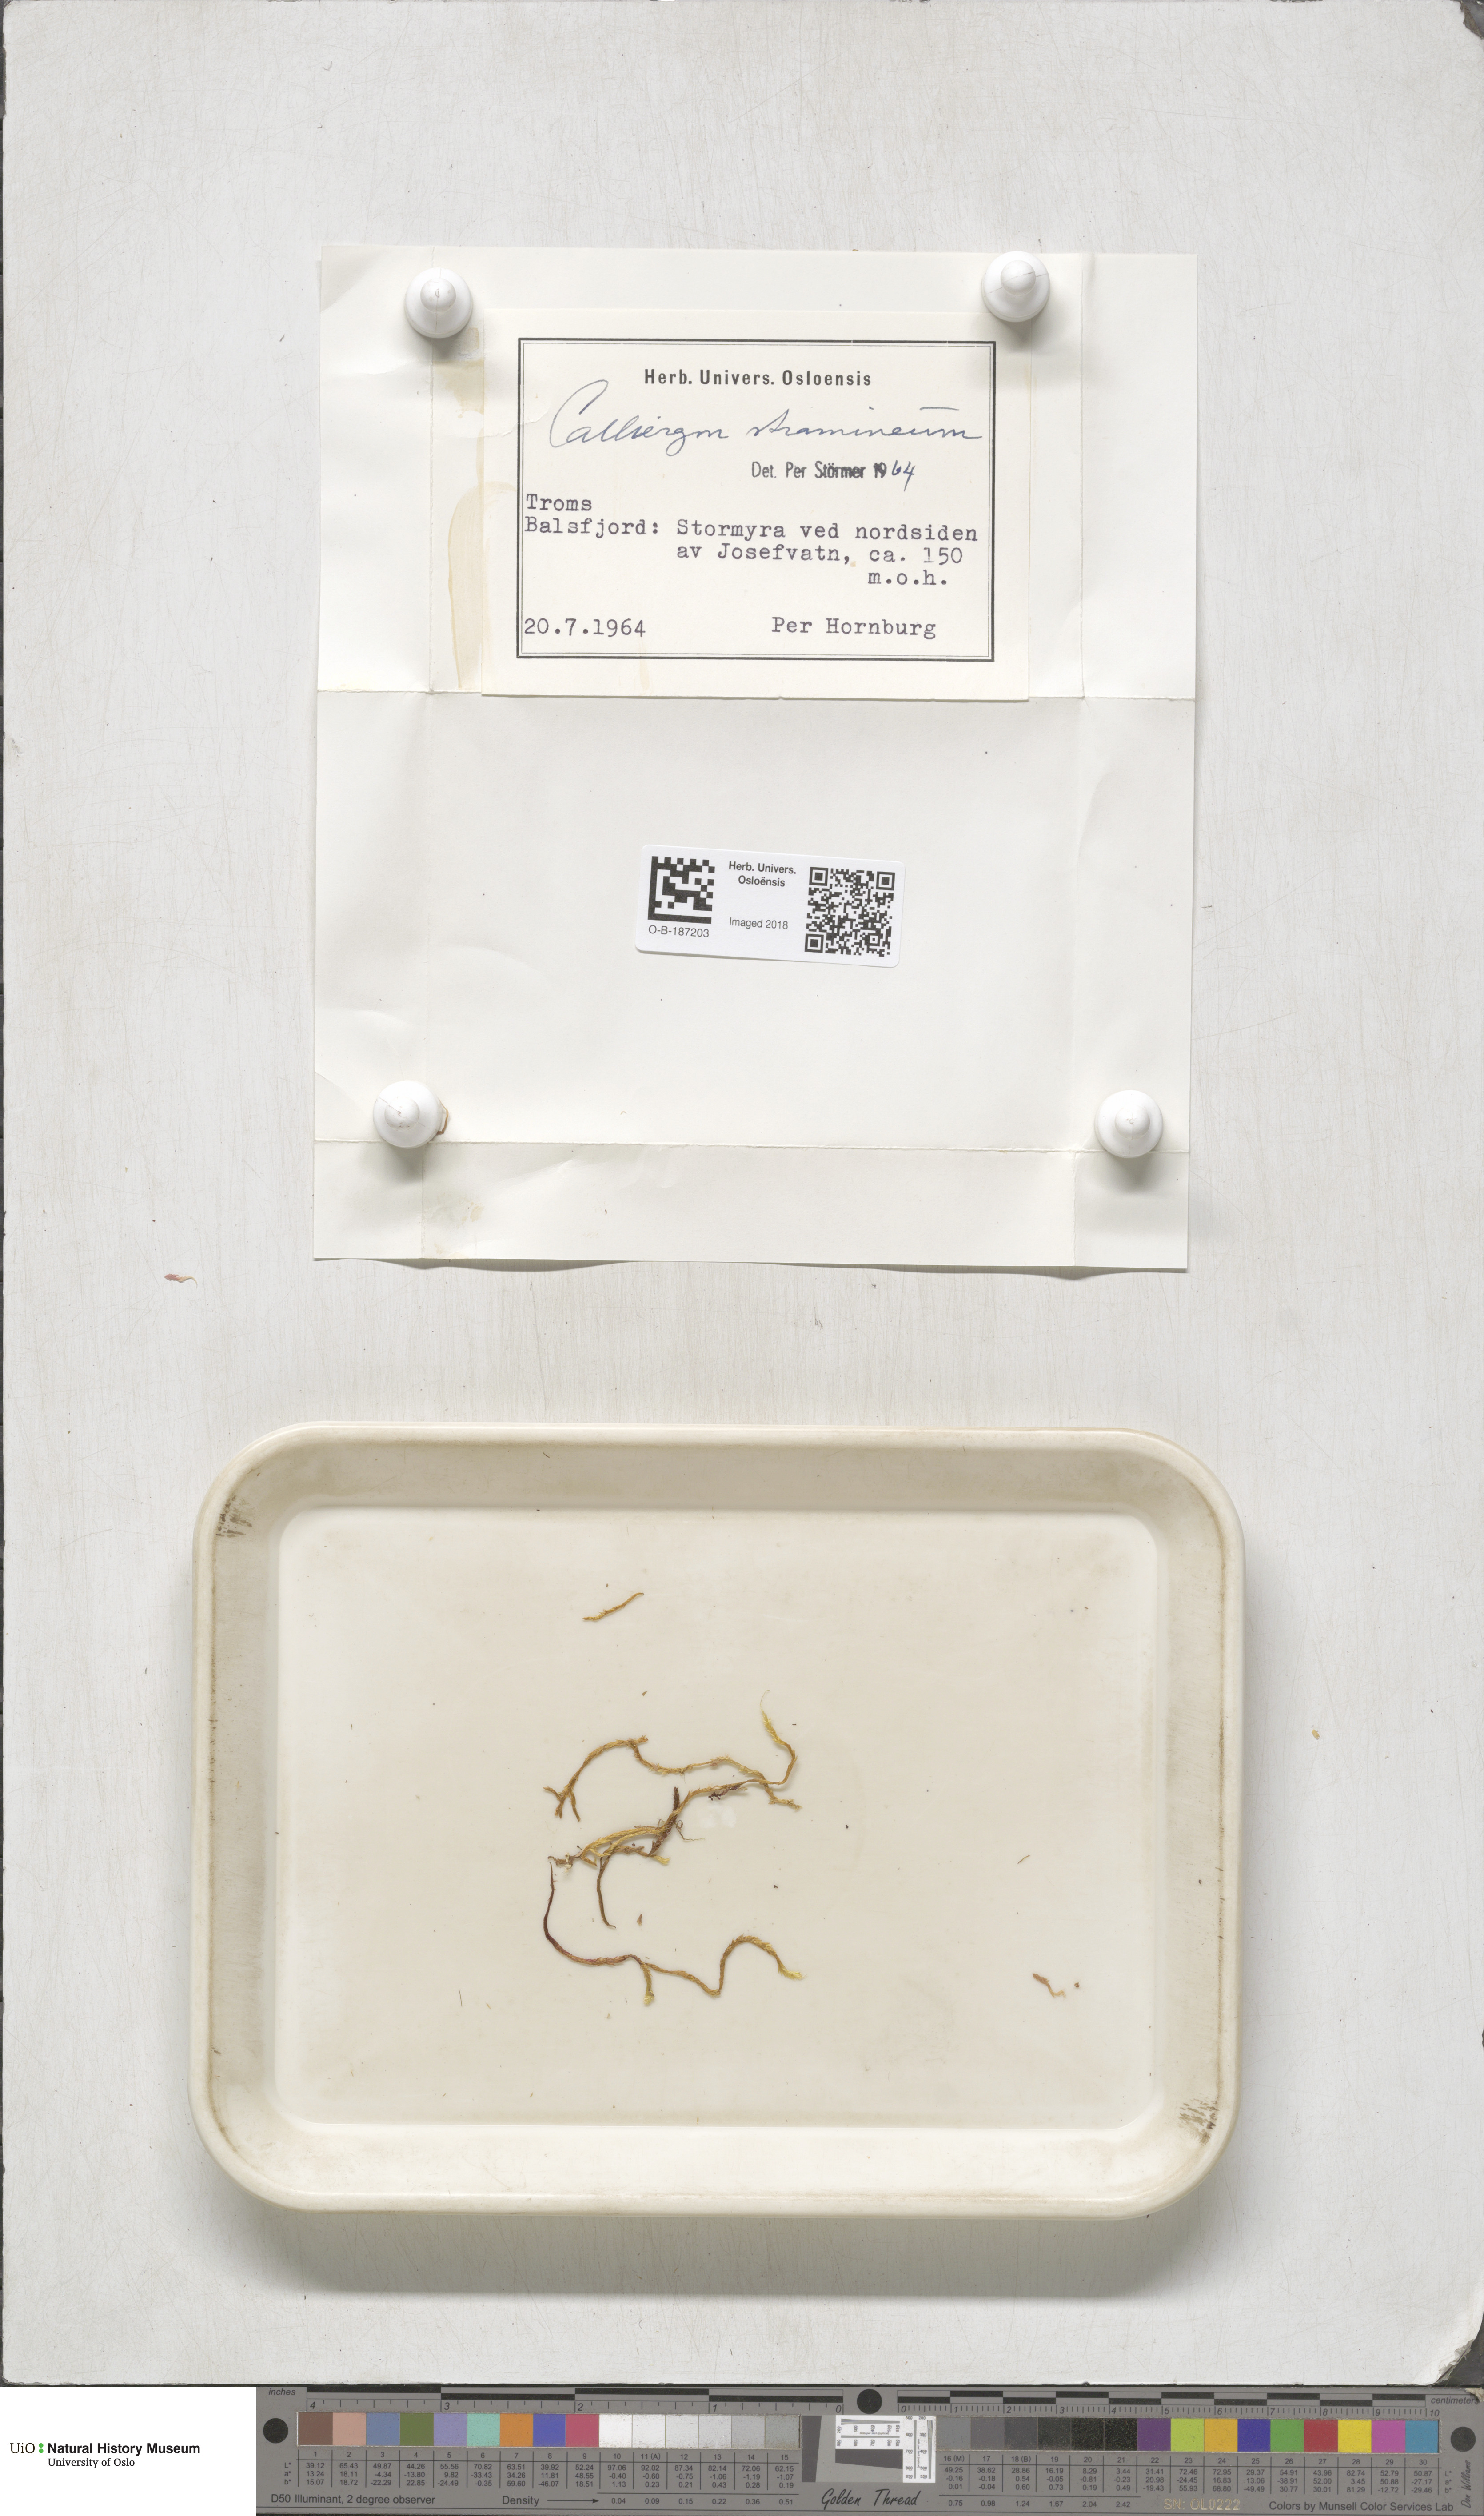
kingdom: Plantae
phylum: Bryophyta
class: Bryopsida
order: Hypnales
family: Calliergonaceae
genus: Straminergon
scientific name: Straminergon stramineum
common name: Straw moss
